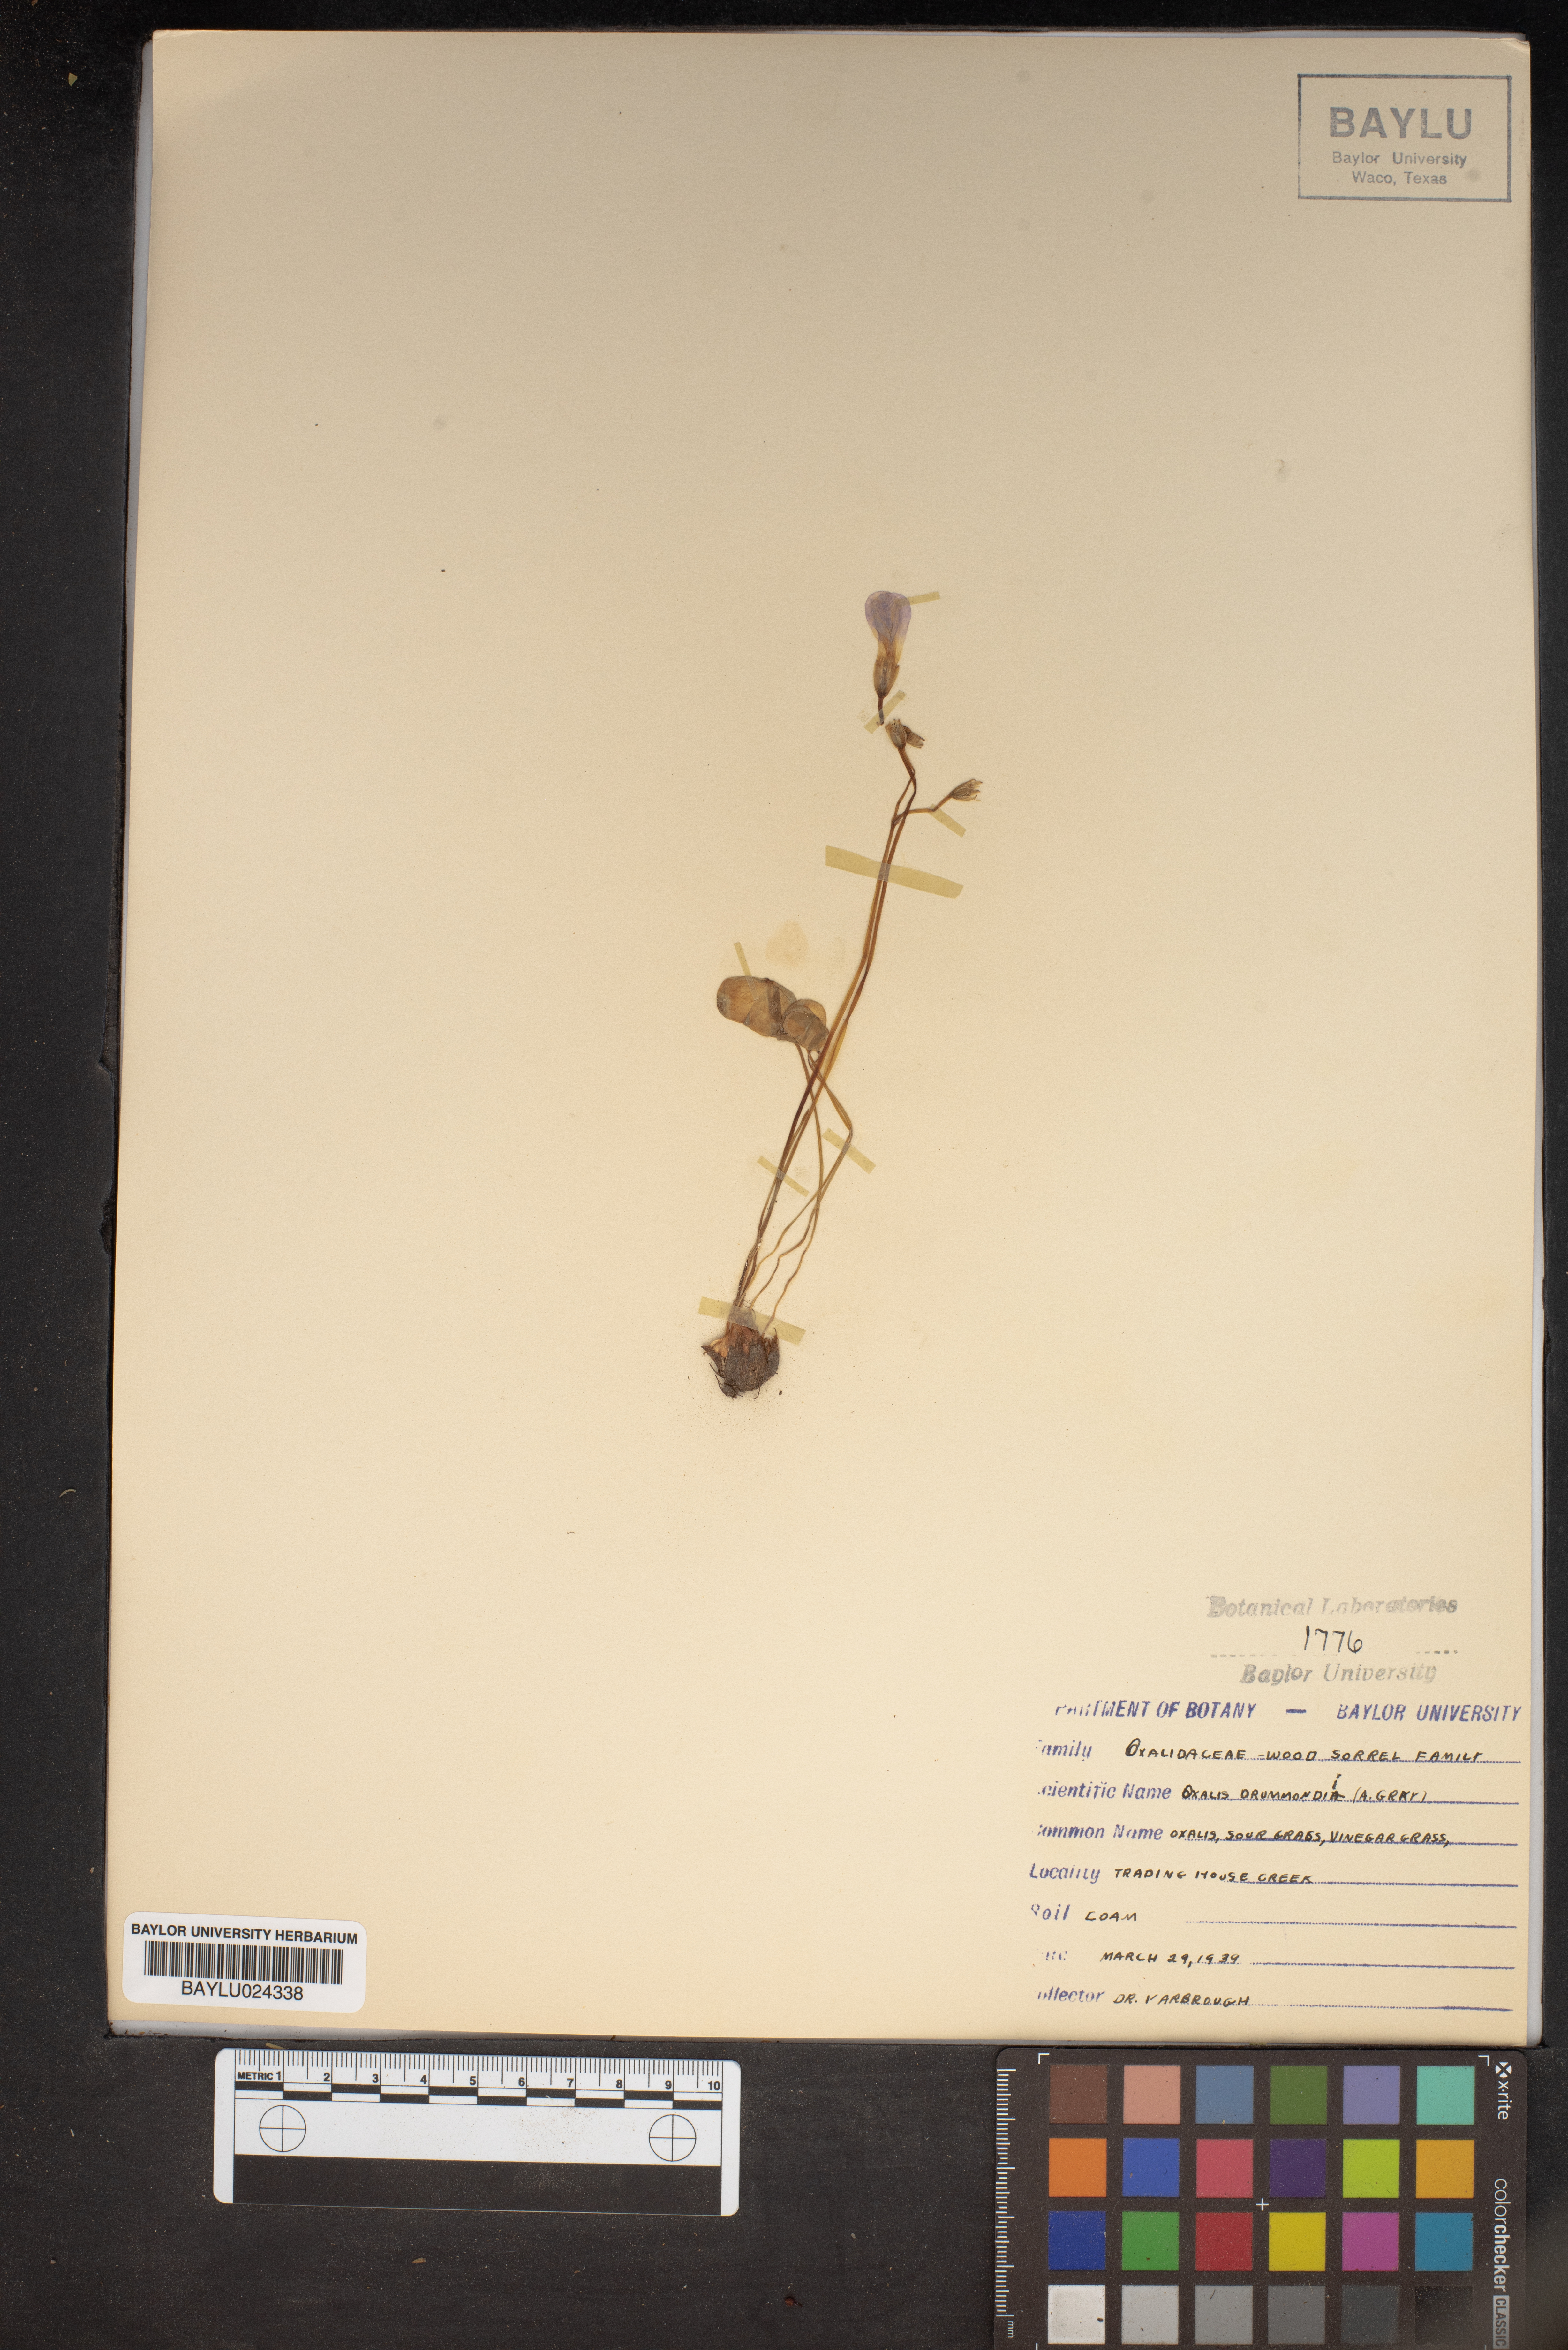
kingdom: Plantae
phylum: Tracheophyta
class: Magnoliopsida
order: Oxalidales
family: Oxalidaceae
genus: Oxalis
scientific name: Oxalis drummondii
